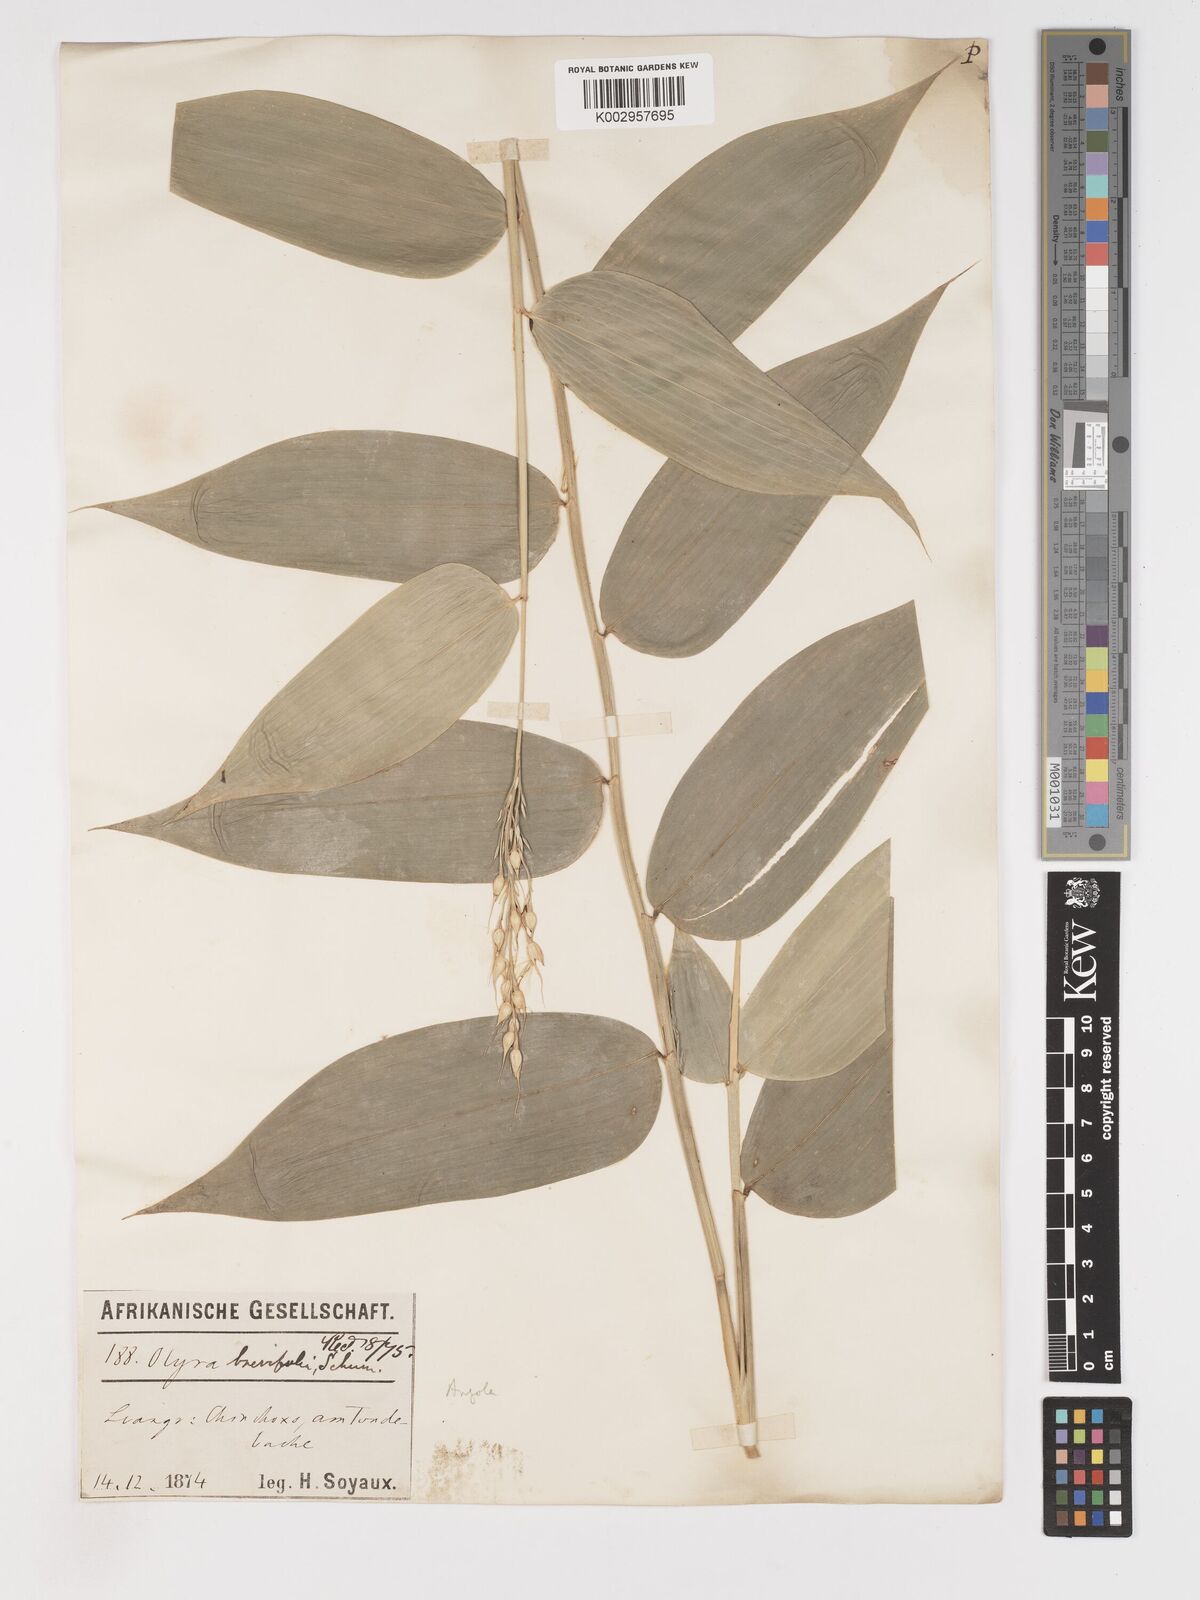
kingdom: Plantae
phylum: Tracheophyta
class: Liliopsida
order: Poales
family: Poaceae
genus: Olyra
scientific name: Olyra latifolia
